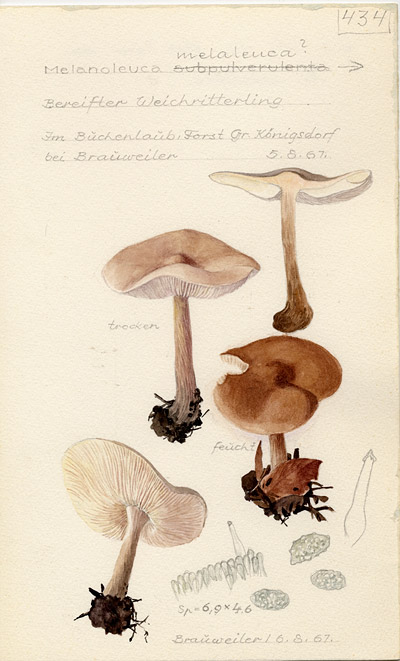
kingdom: Fungi
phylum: Basidiomycota
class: Agaricomycetes
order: Agaricales
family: Tricholomataceae
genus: Melanoleuca
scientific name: Melanoleuca melaleuca
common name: Bald cavalier
